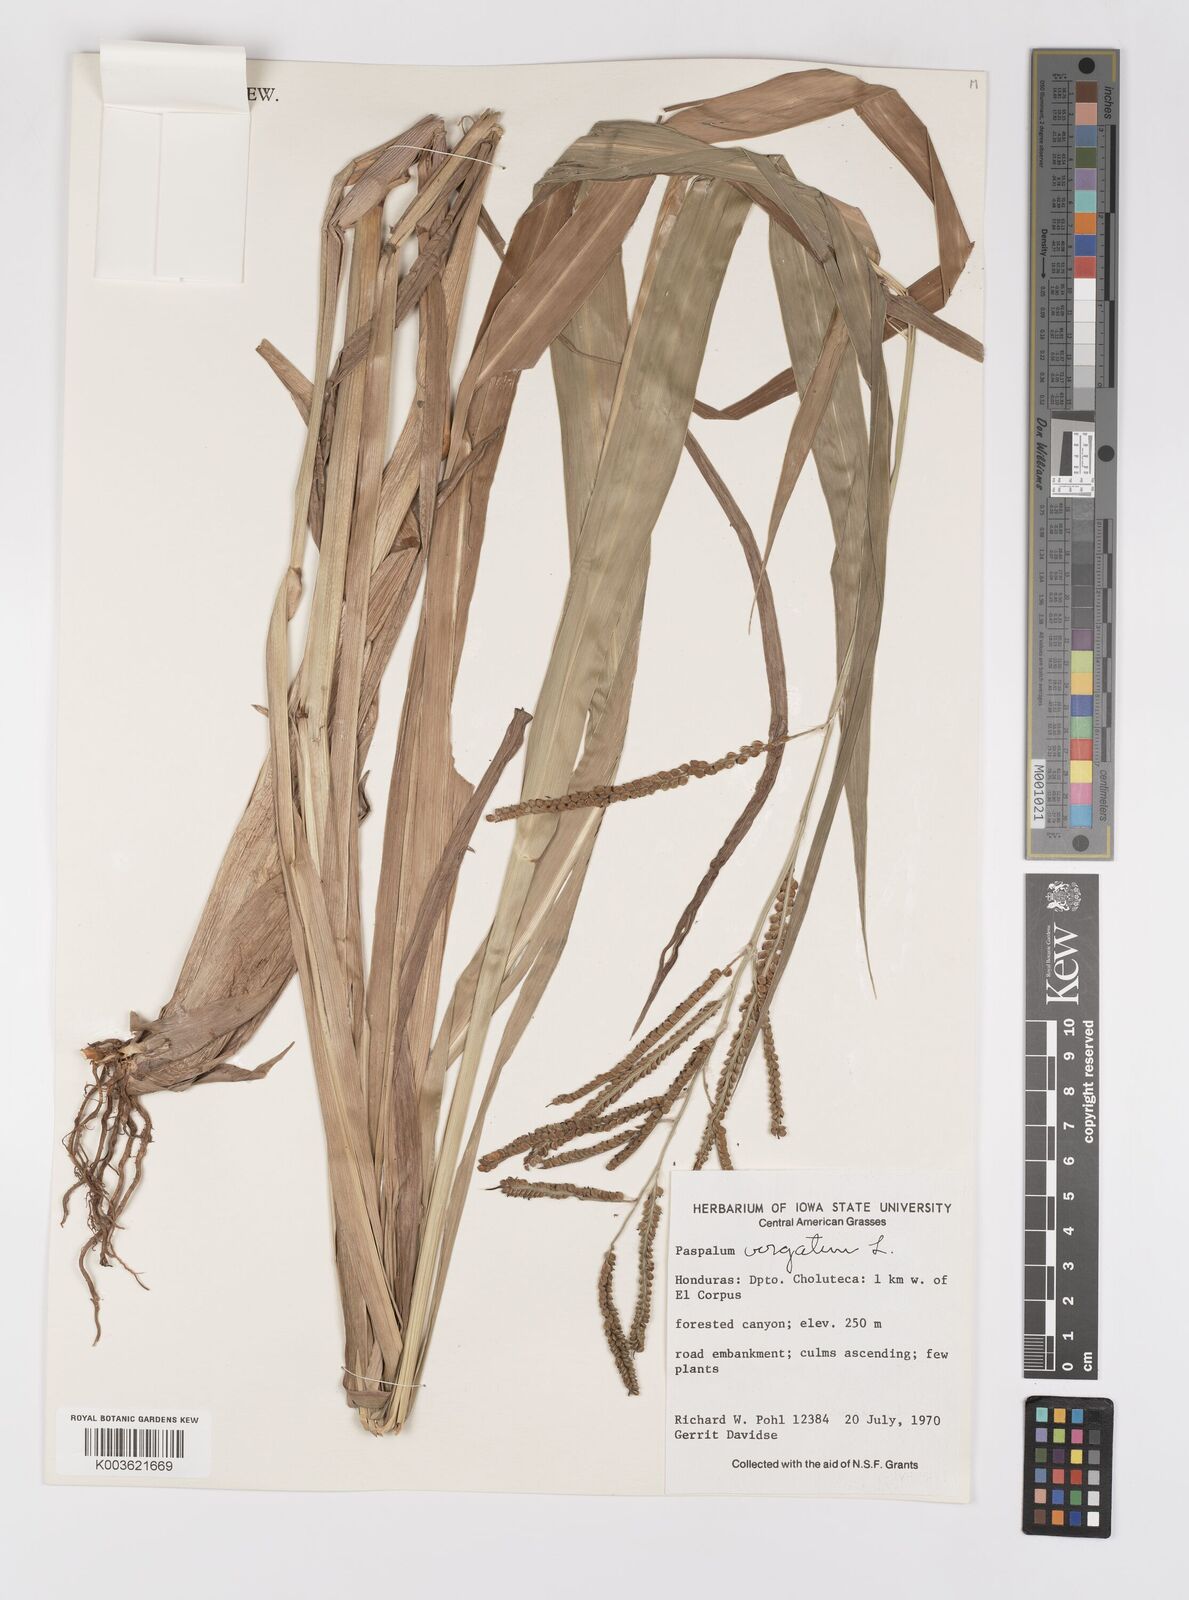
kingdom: Plantae
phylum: Tracheophyta
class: Liliopsida
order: Poales
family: Poaceae
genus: Paspalum
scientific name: Paspalum virgatum
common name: Talquezal
